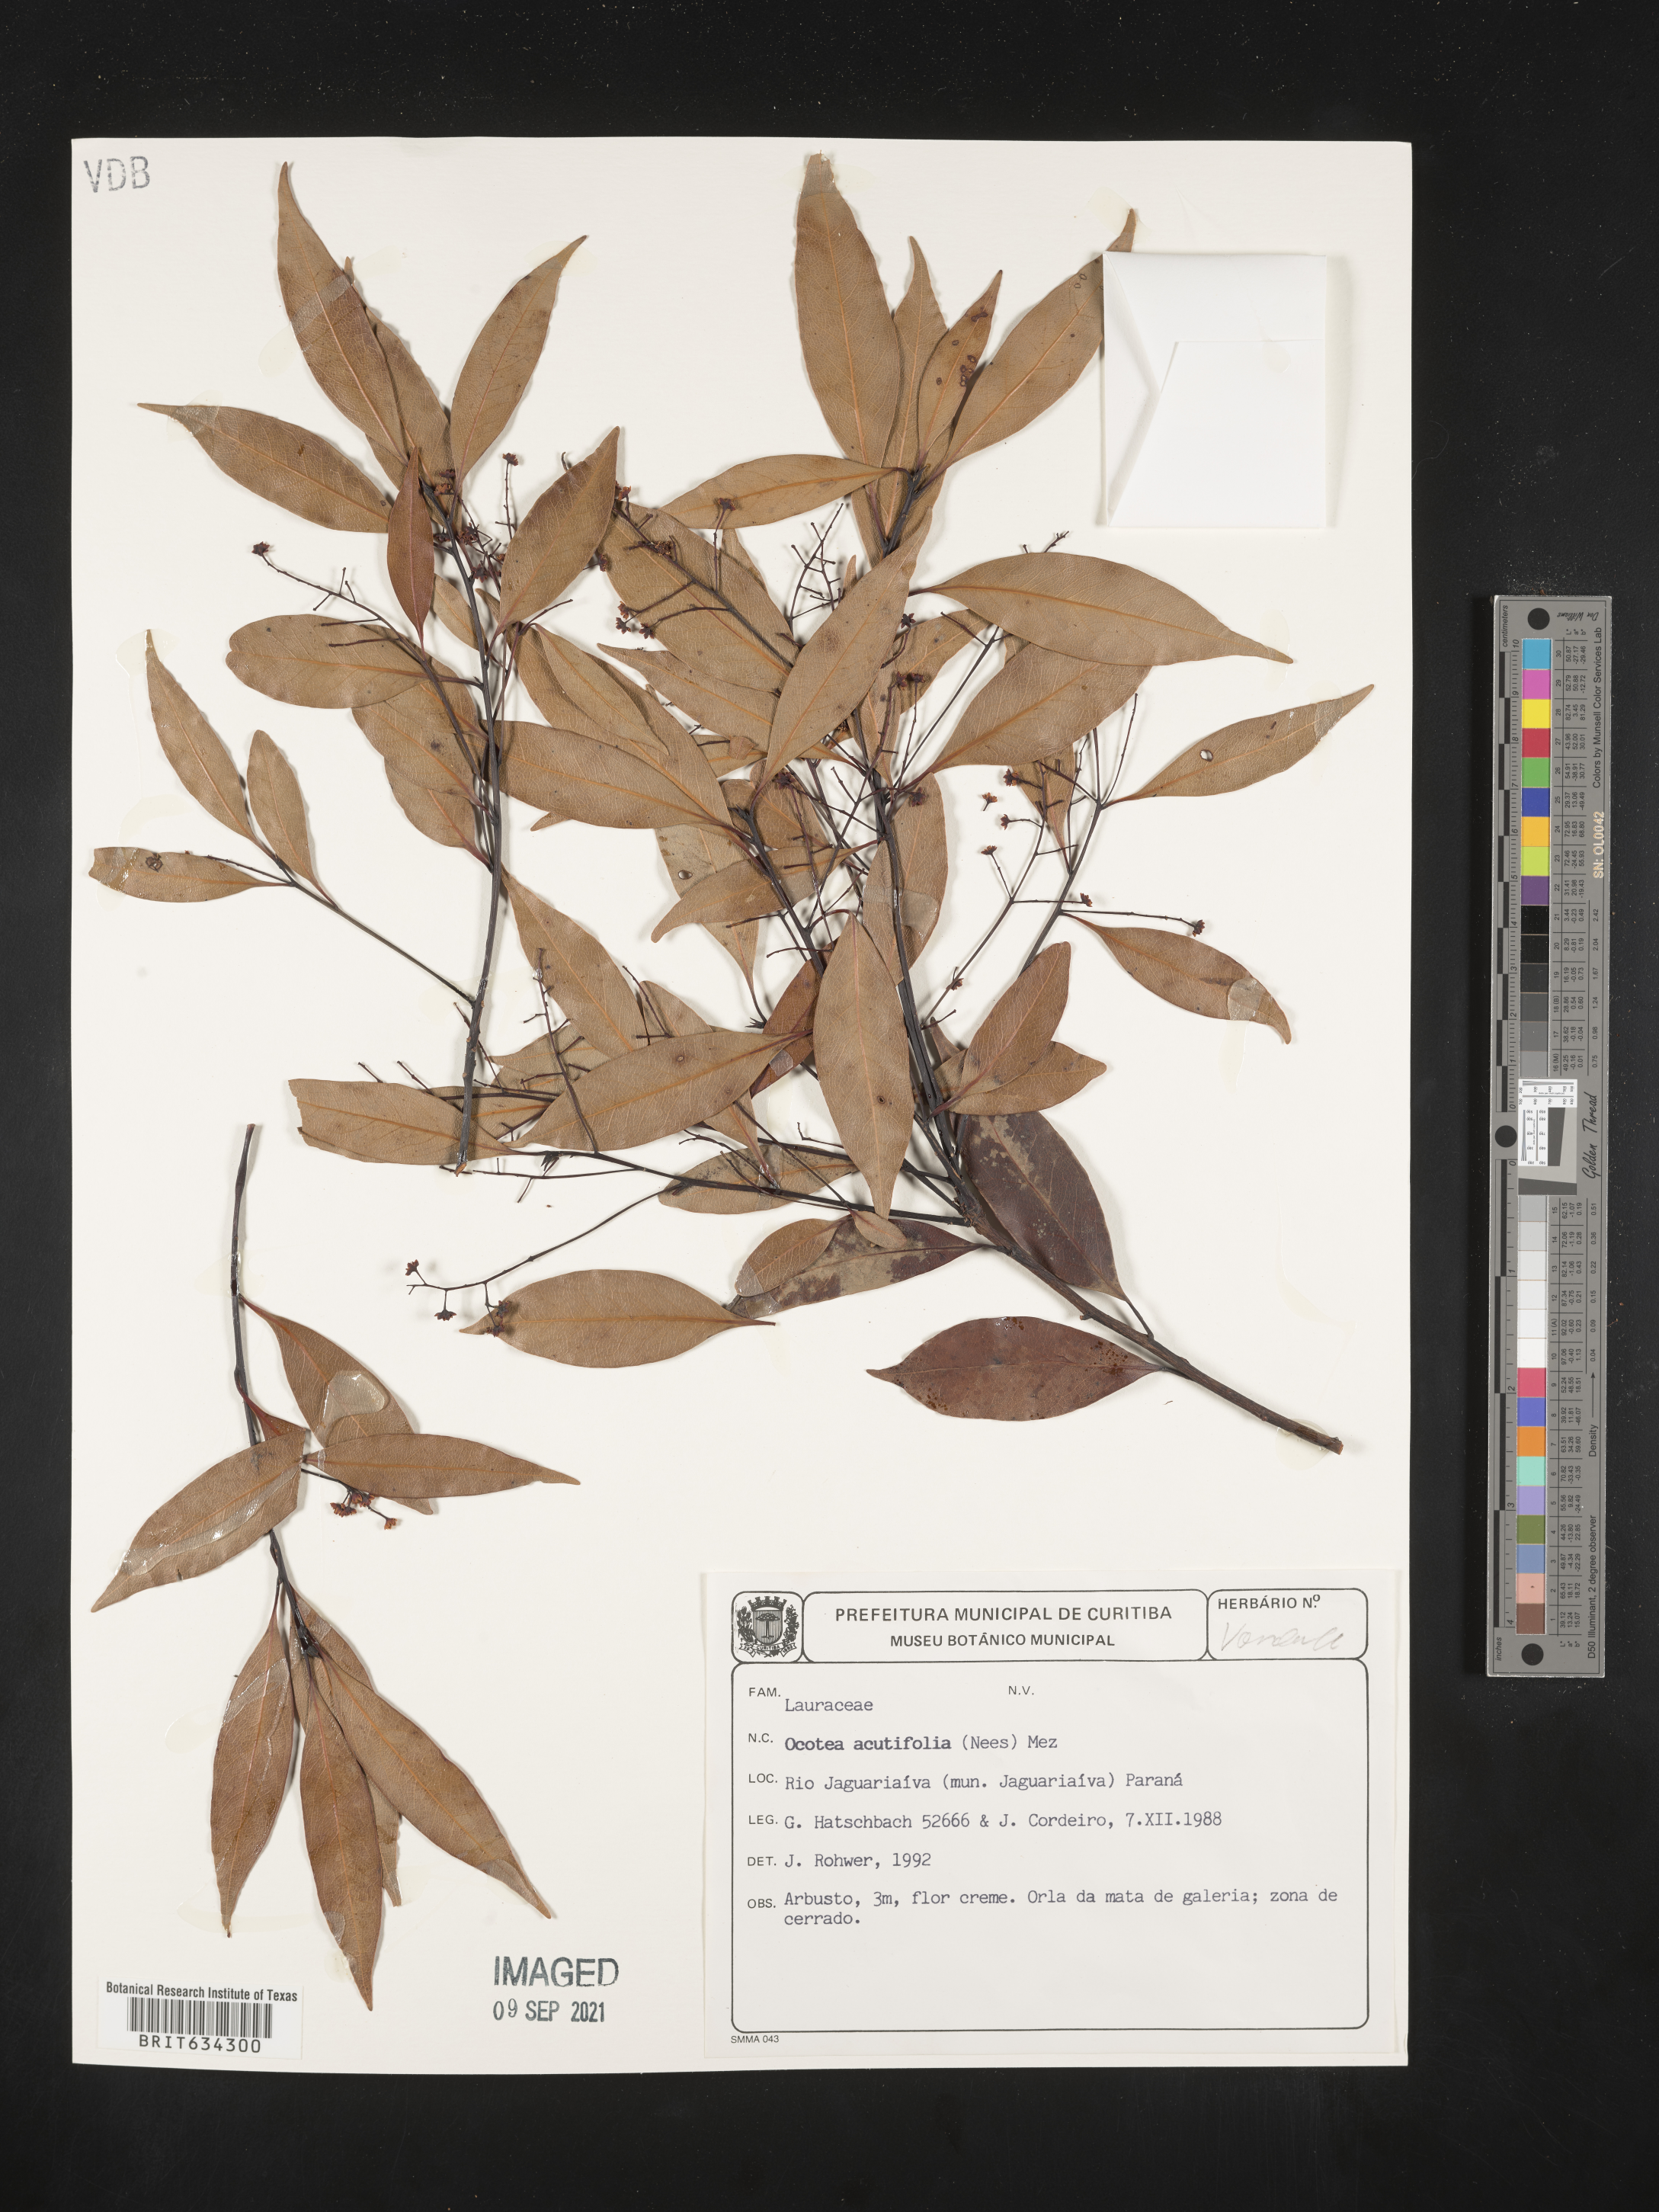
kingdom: Plantae
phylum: Tracheophyta
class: Magnoliopsida
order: Laurales
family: Lauraceae
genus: Ocotea
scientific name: Ocotea
